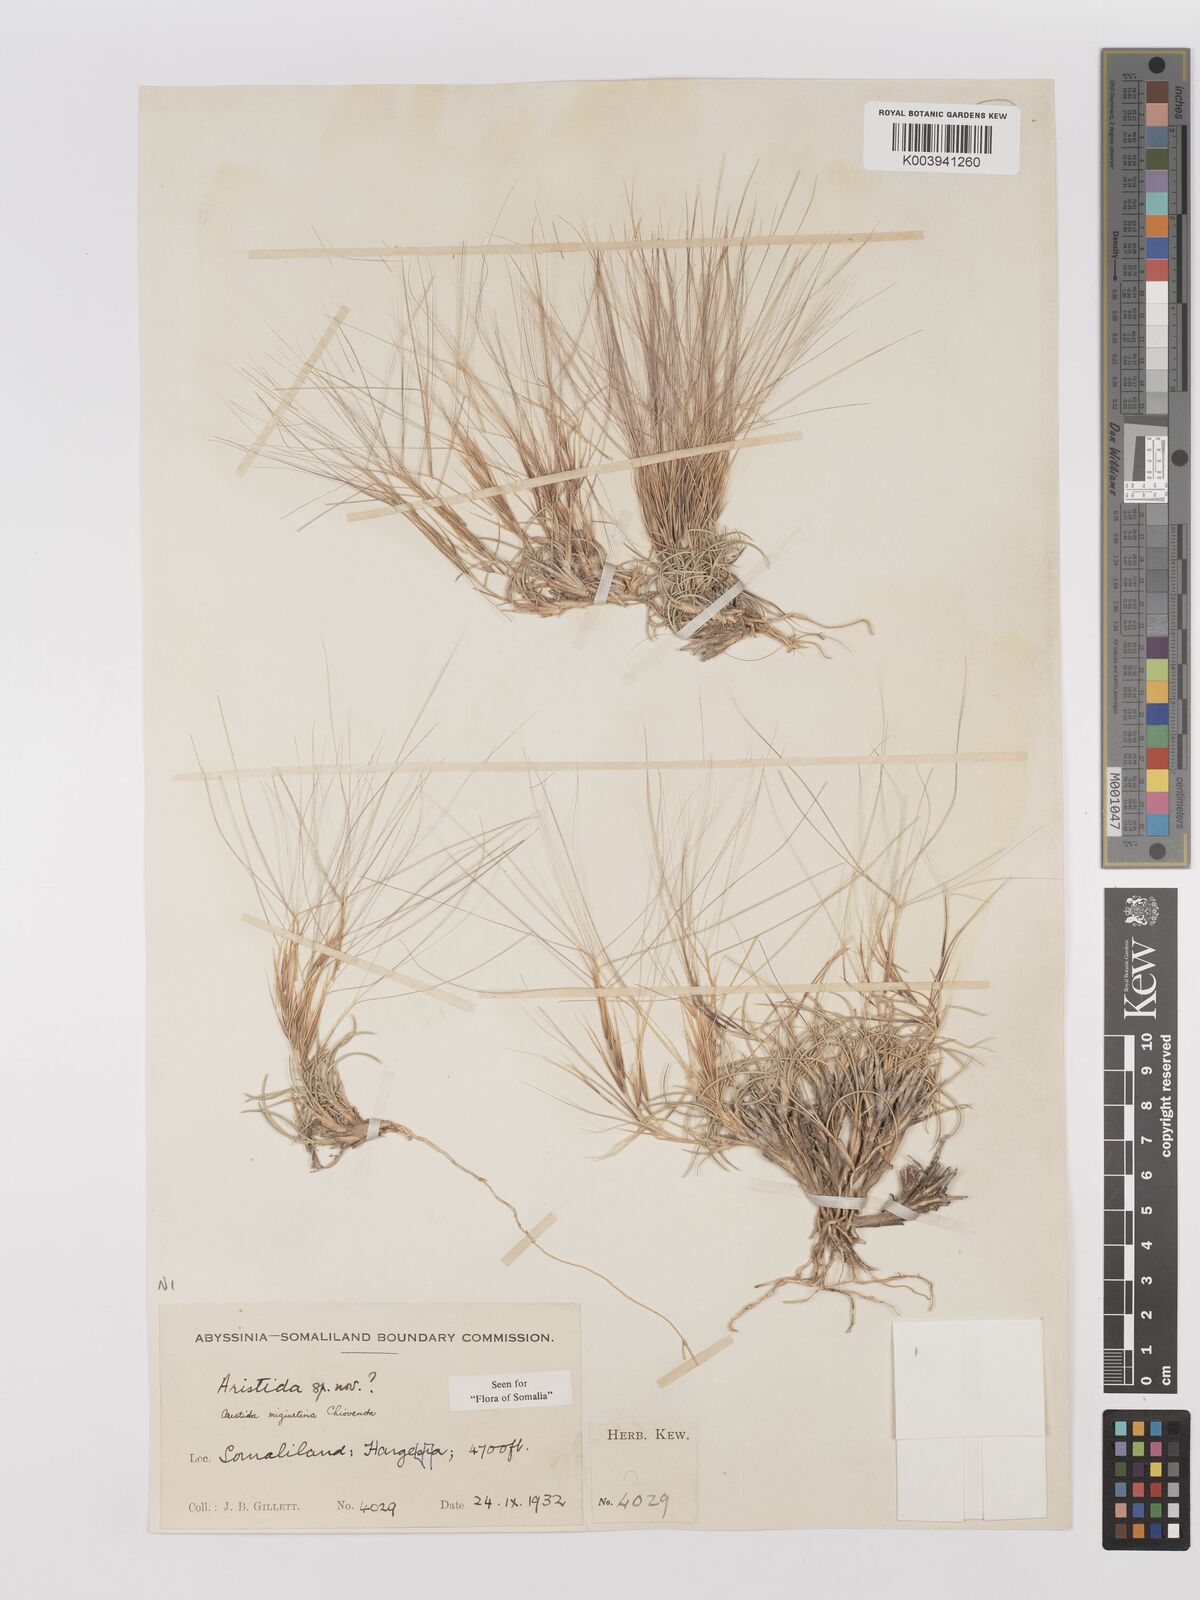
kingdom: Plantae
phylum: Tracheophyta
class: Liliopsida
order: Poales
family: Poaceae
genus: Stipagrostis
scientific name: Stipagrostis
